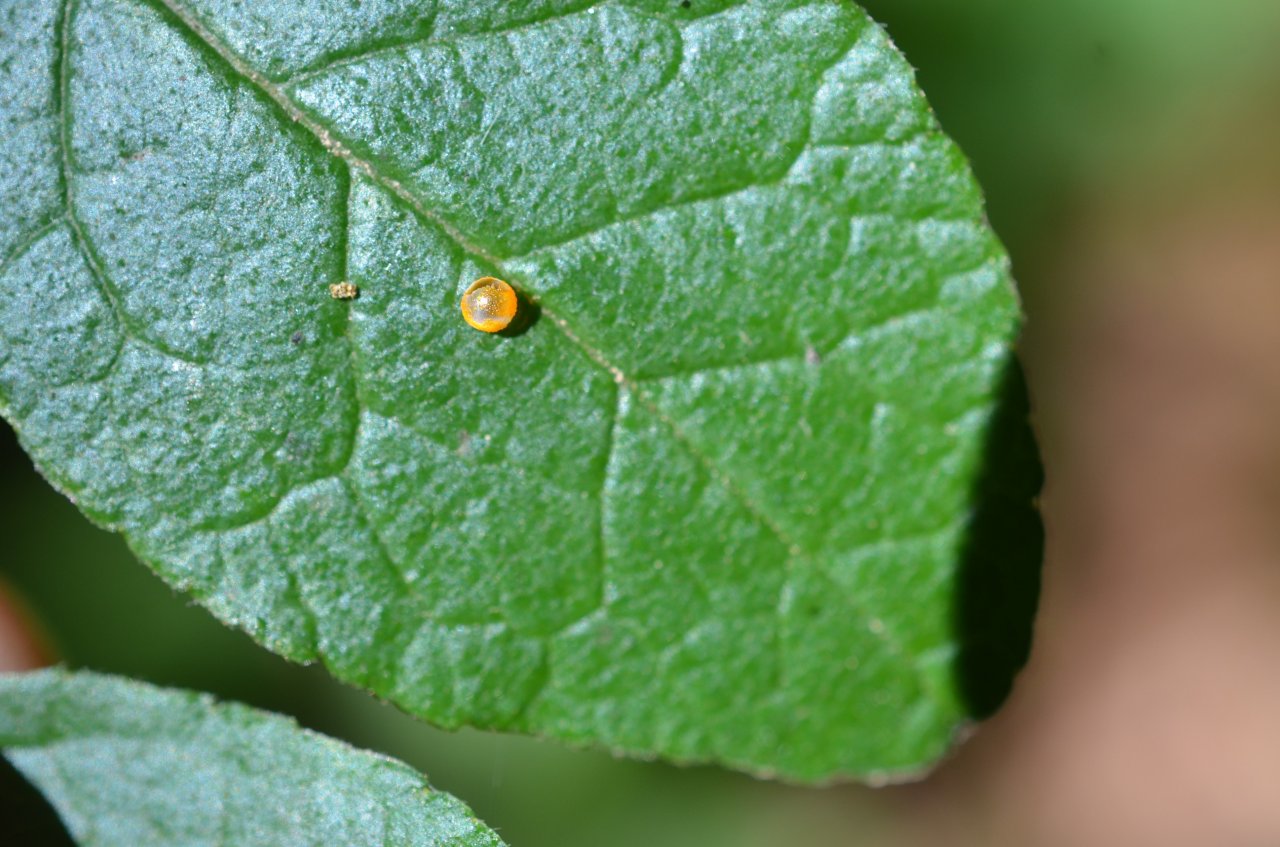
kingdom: Animalia
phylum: Arthropoda
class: Insecta
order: Lepidoptera
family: Papilionidae
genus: Papilio
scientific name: Papilio cresphontes
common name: Eastern Giant Swallowtail
